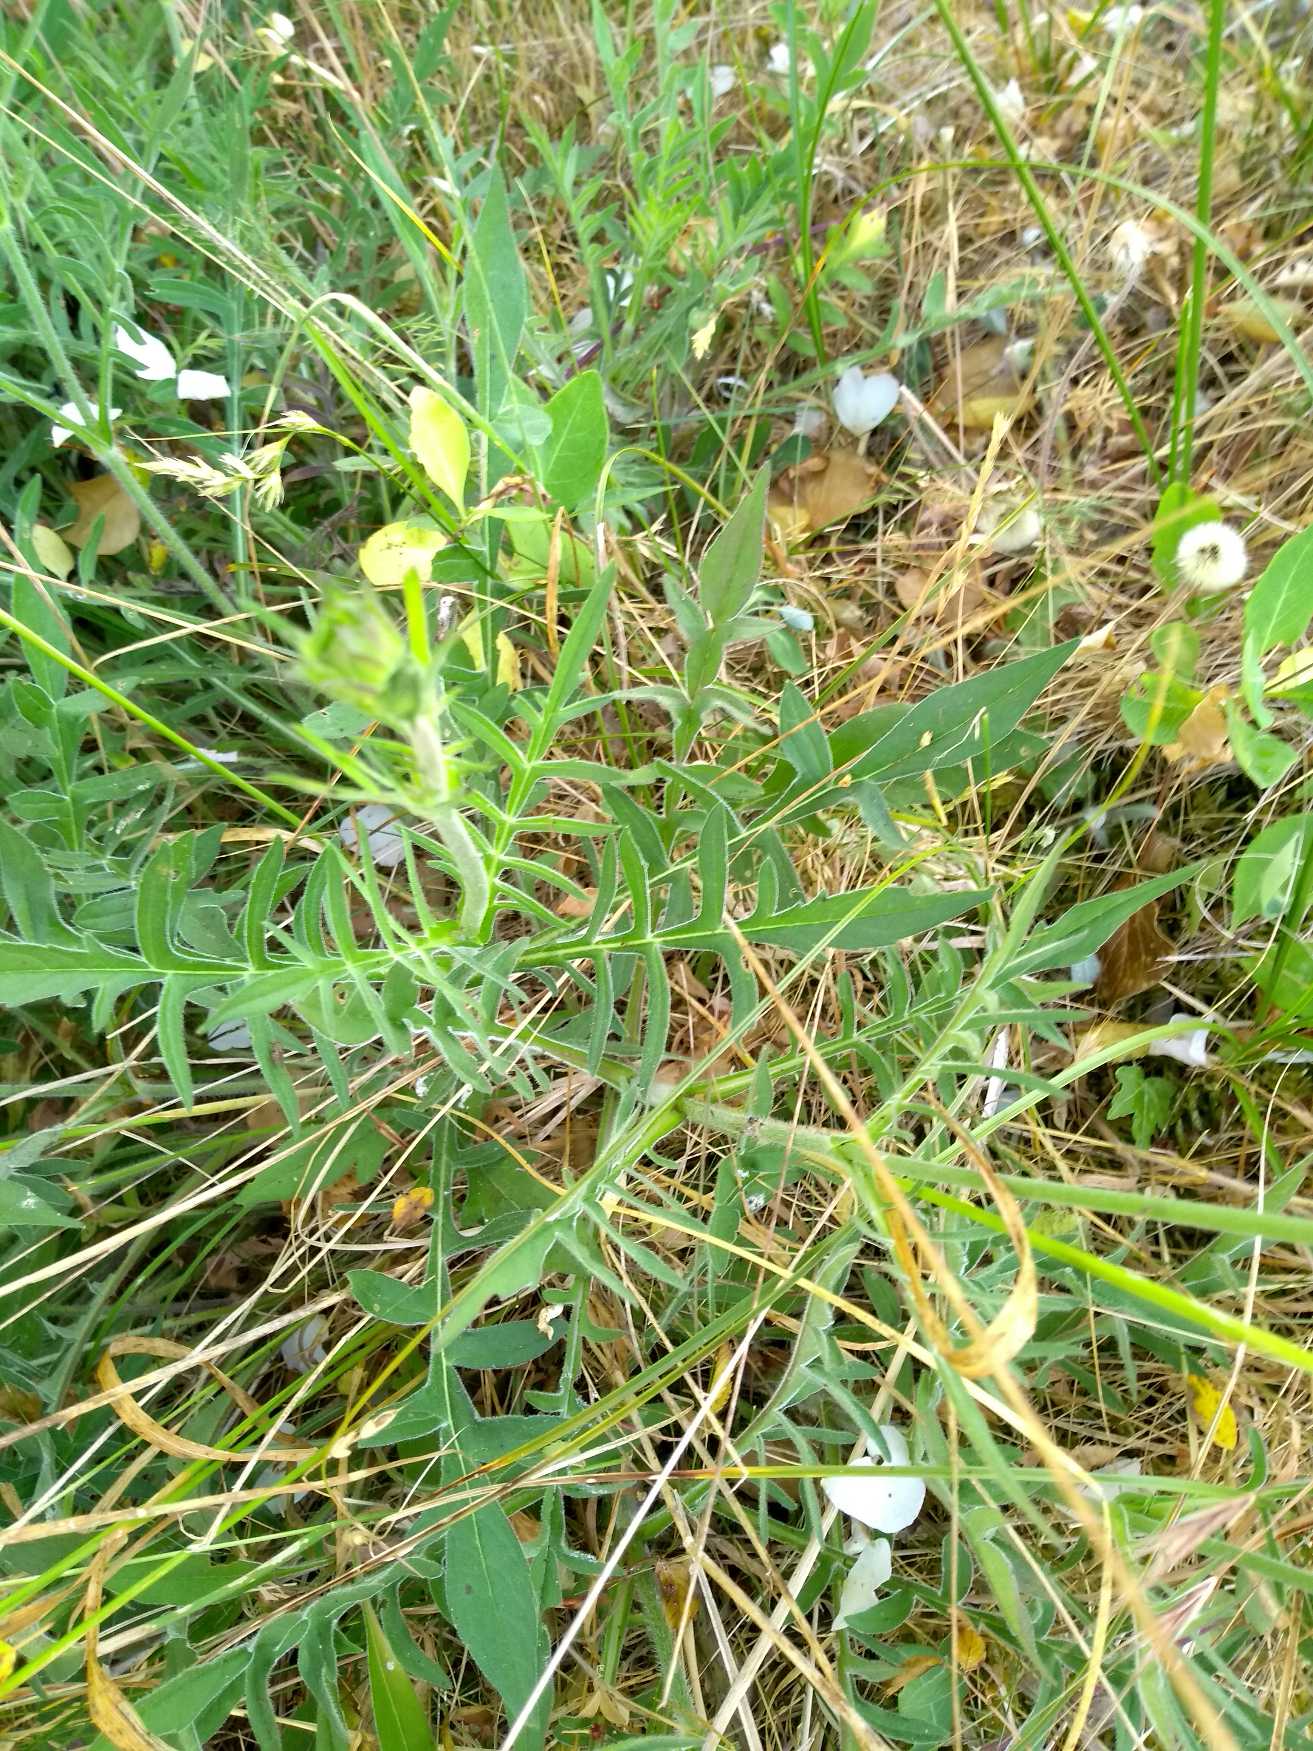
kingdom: Plantae
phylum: Tracheophyta
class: Magnoliopsida
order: Dipsacales
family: Caprifoliaceae
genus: Knautia
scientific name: Knautia arvensis
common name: Blåhat
